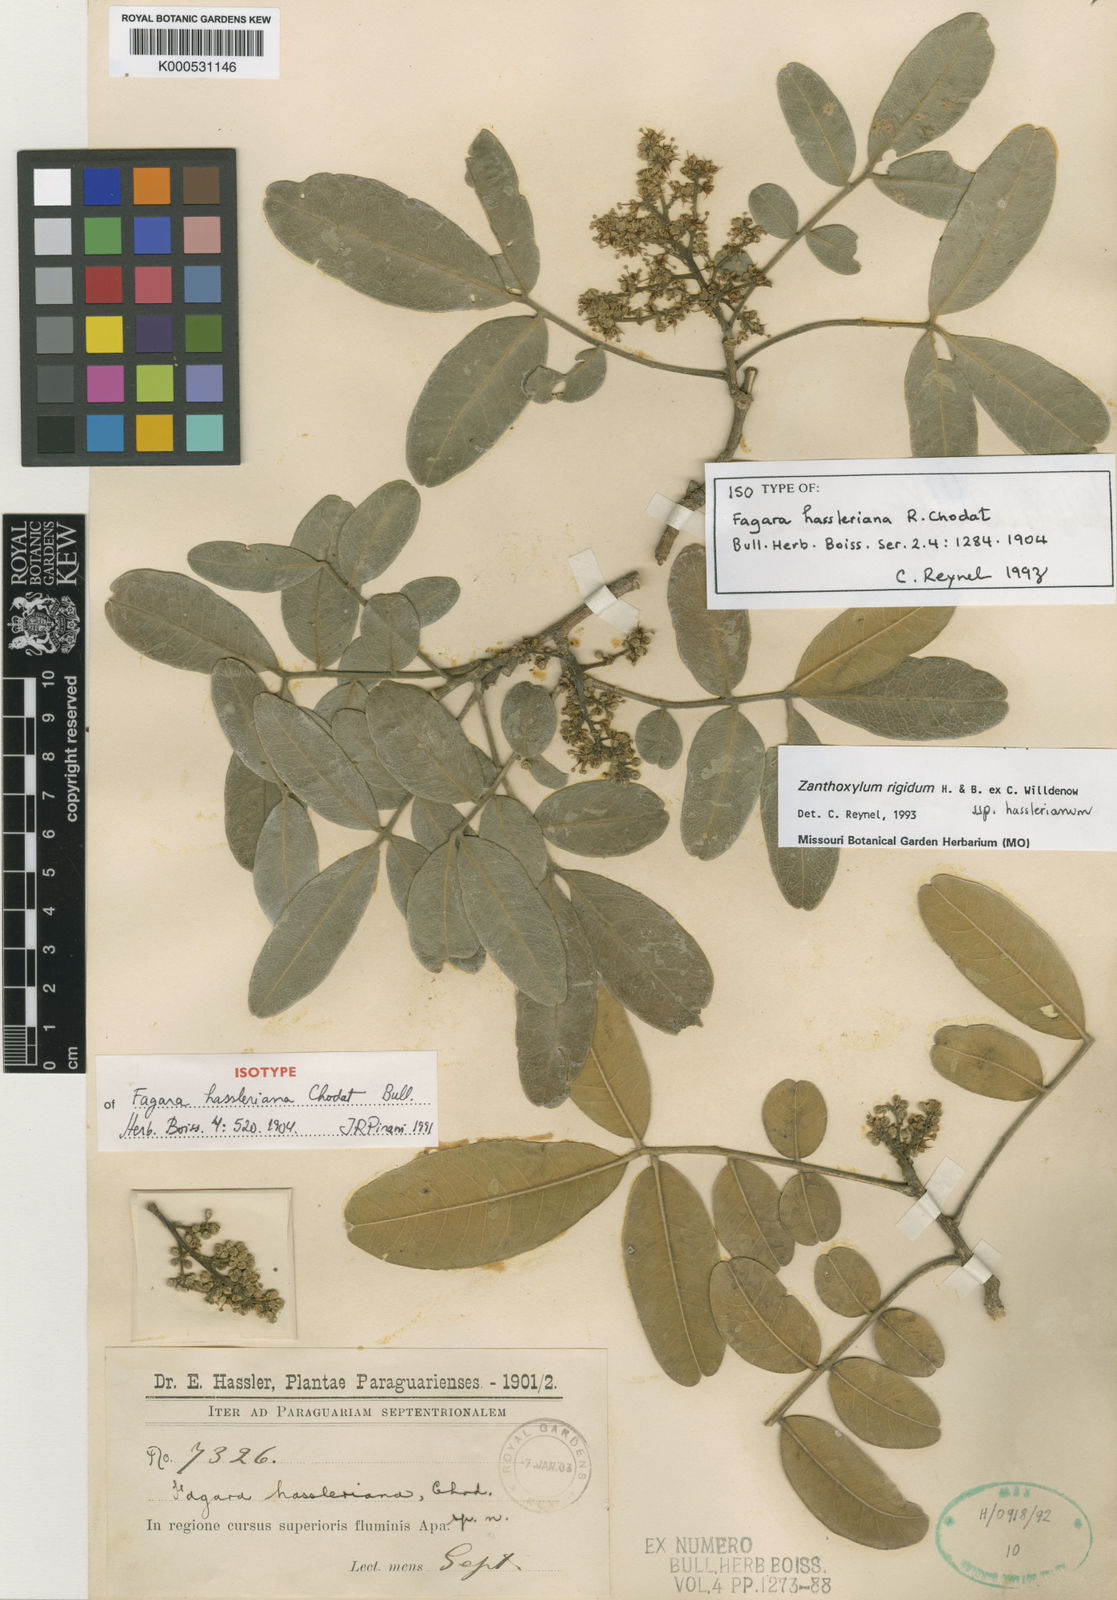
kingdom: Plantae
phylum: Tracheophyta
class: Magnoliopsida
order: Sapindales
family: Rutaceae
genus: Zanthoxylum
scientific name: Zanthoxylum rigidum
